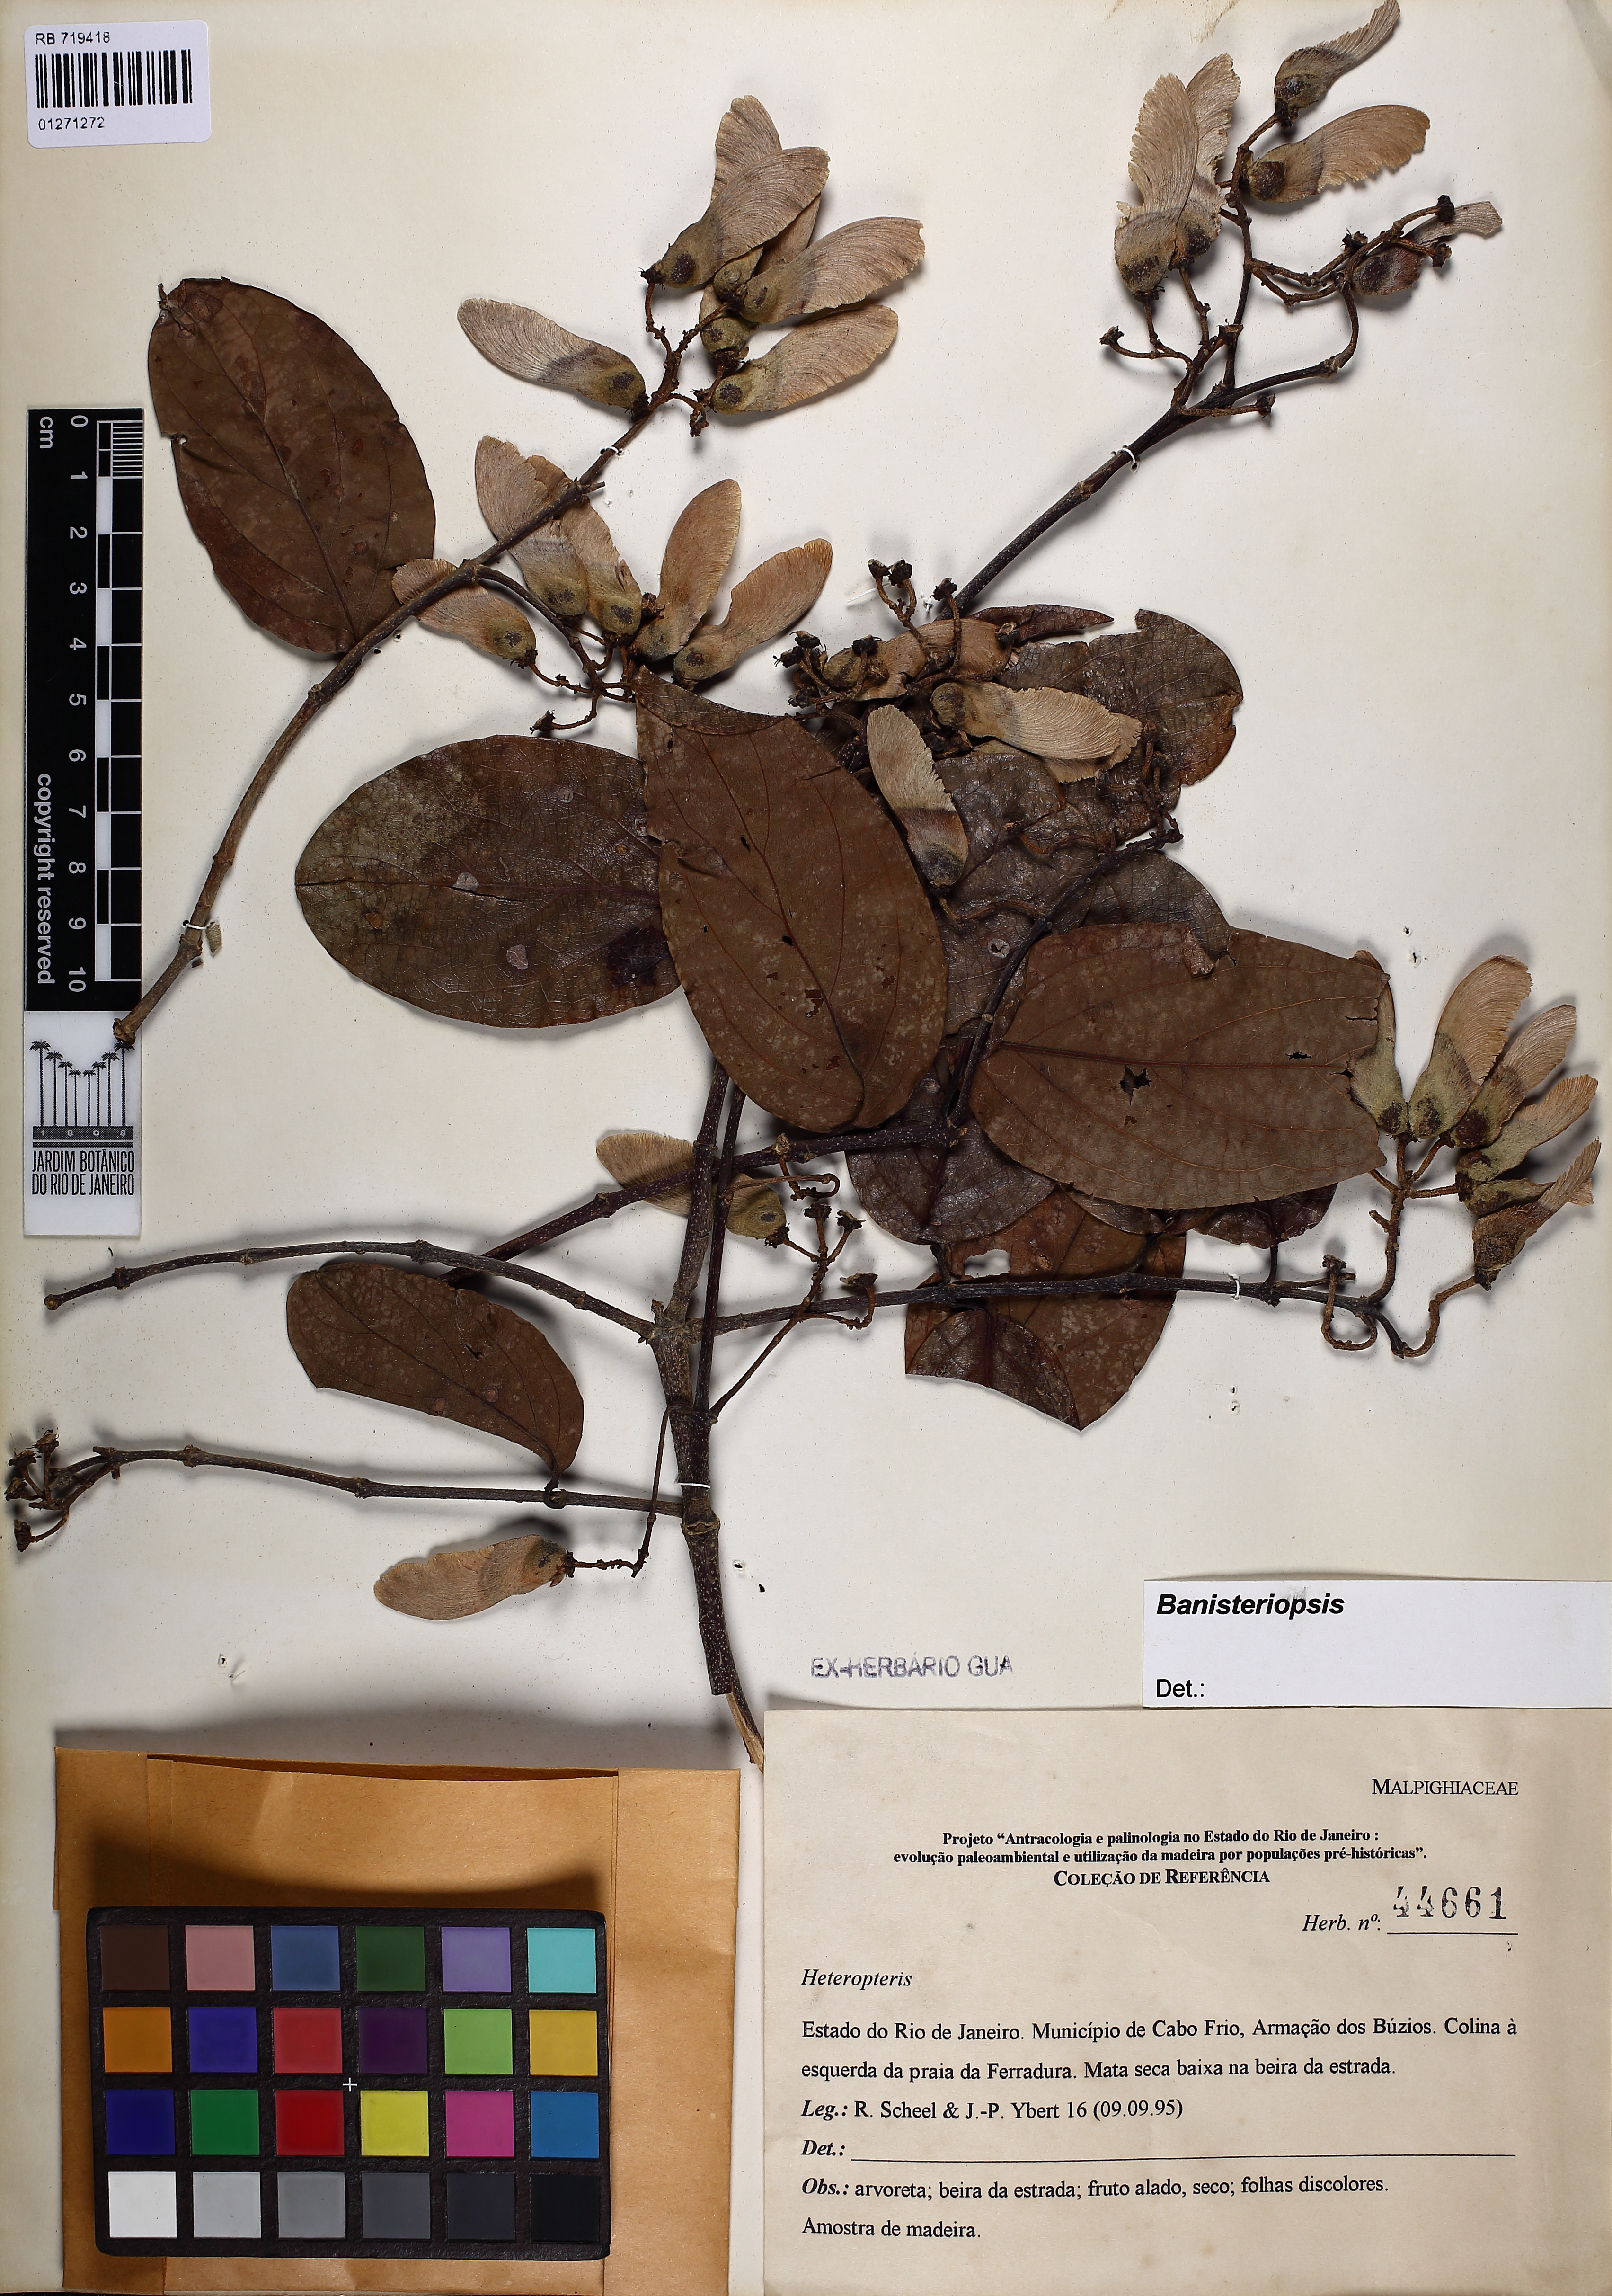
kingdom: Plantae
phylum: Tracheophyta
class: Magnoliopsida
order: Malpighiales
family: Malpighiaceae
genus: Bronwenia
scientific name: Bronwenia
